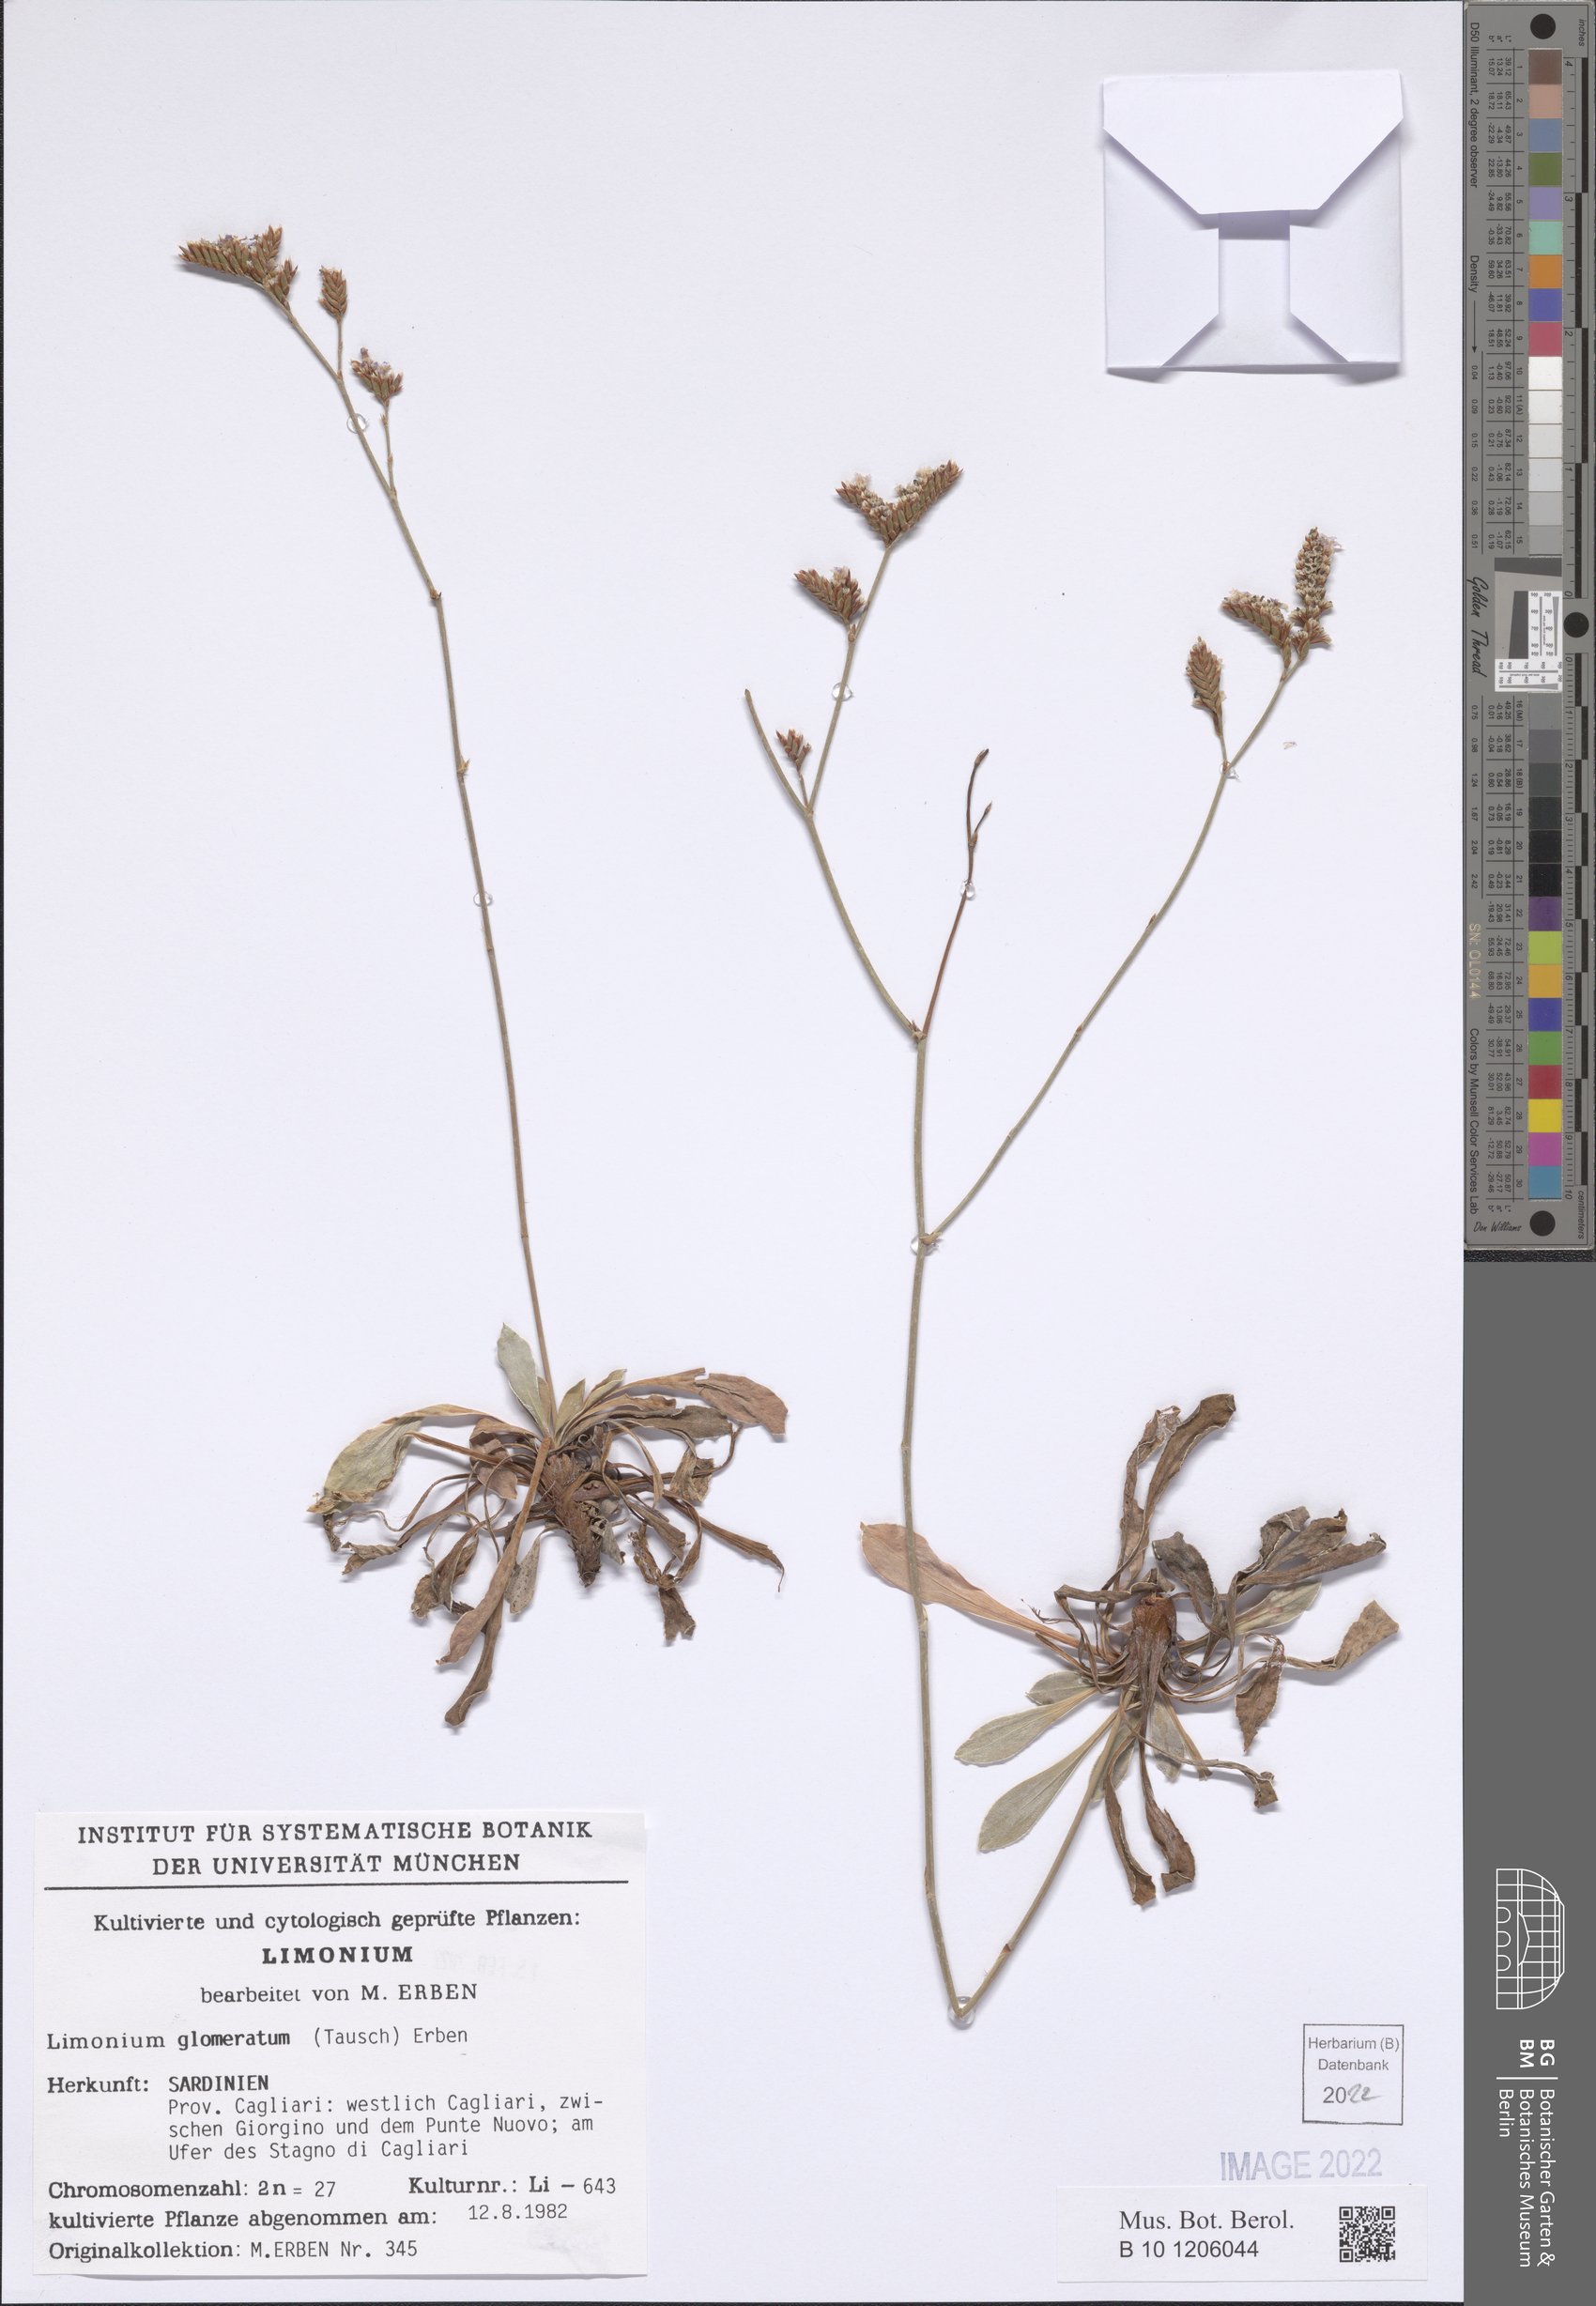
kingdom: Plantae
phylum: Tracheophyta
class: Magnoliopsida
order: Caryophyllales
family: Plumbaginaceae
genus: Limonium
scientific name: Limonium glomeratum
